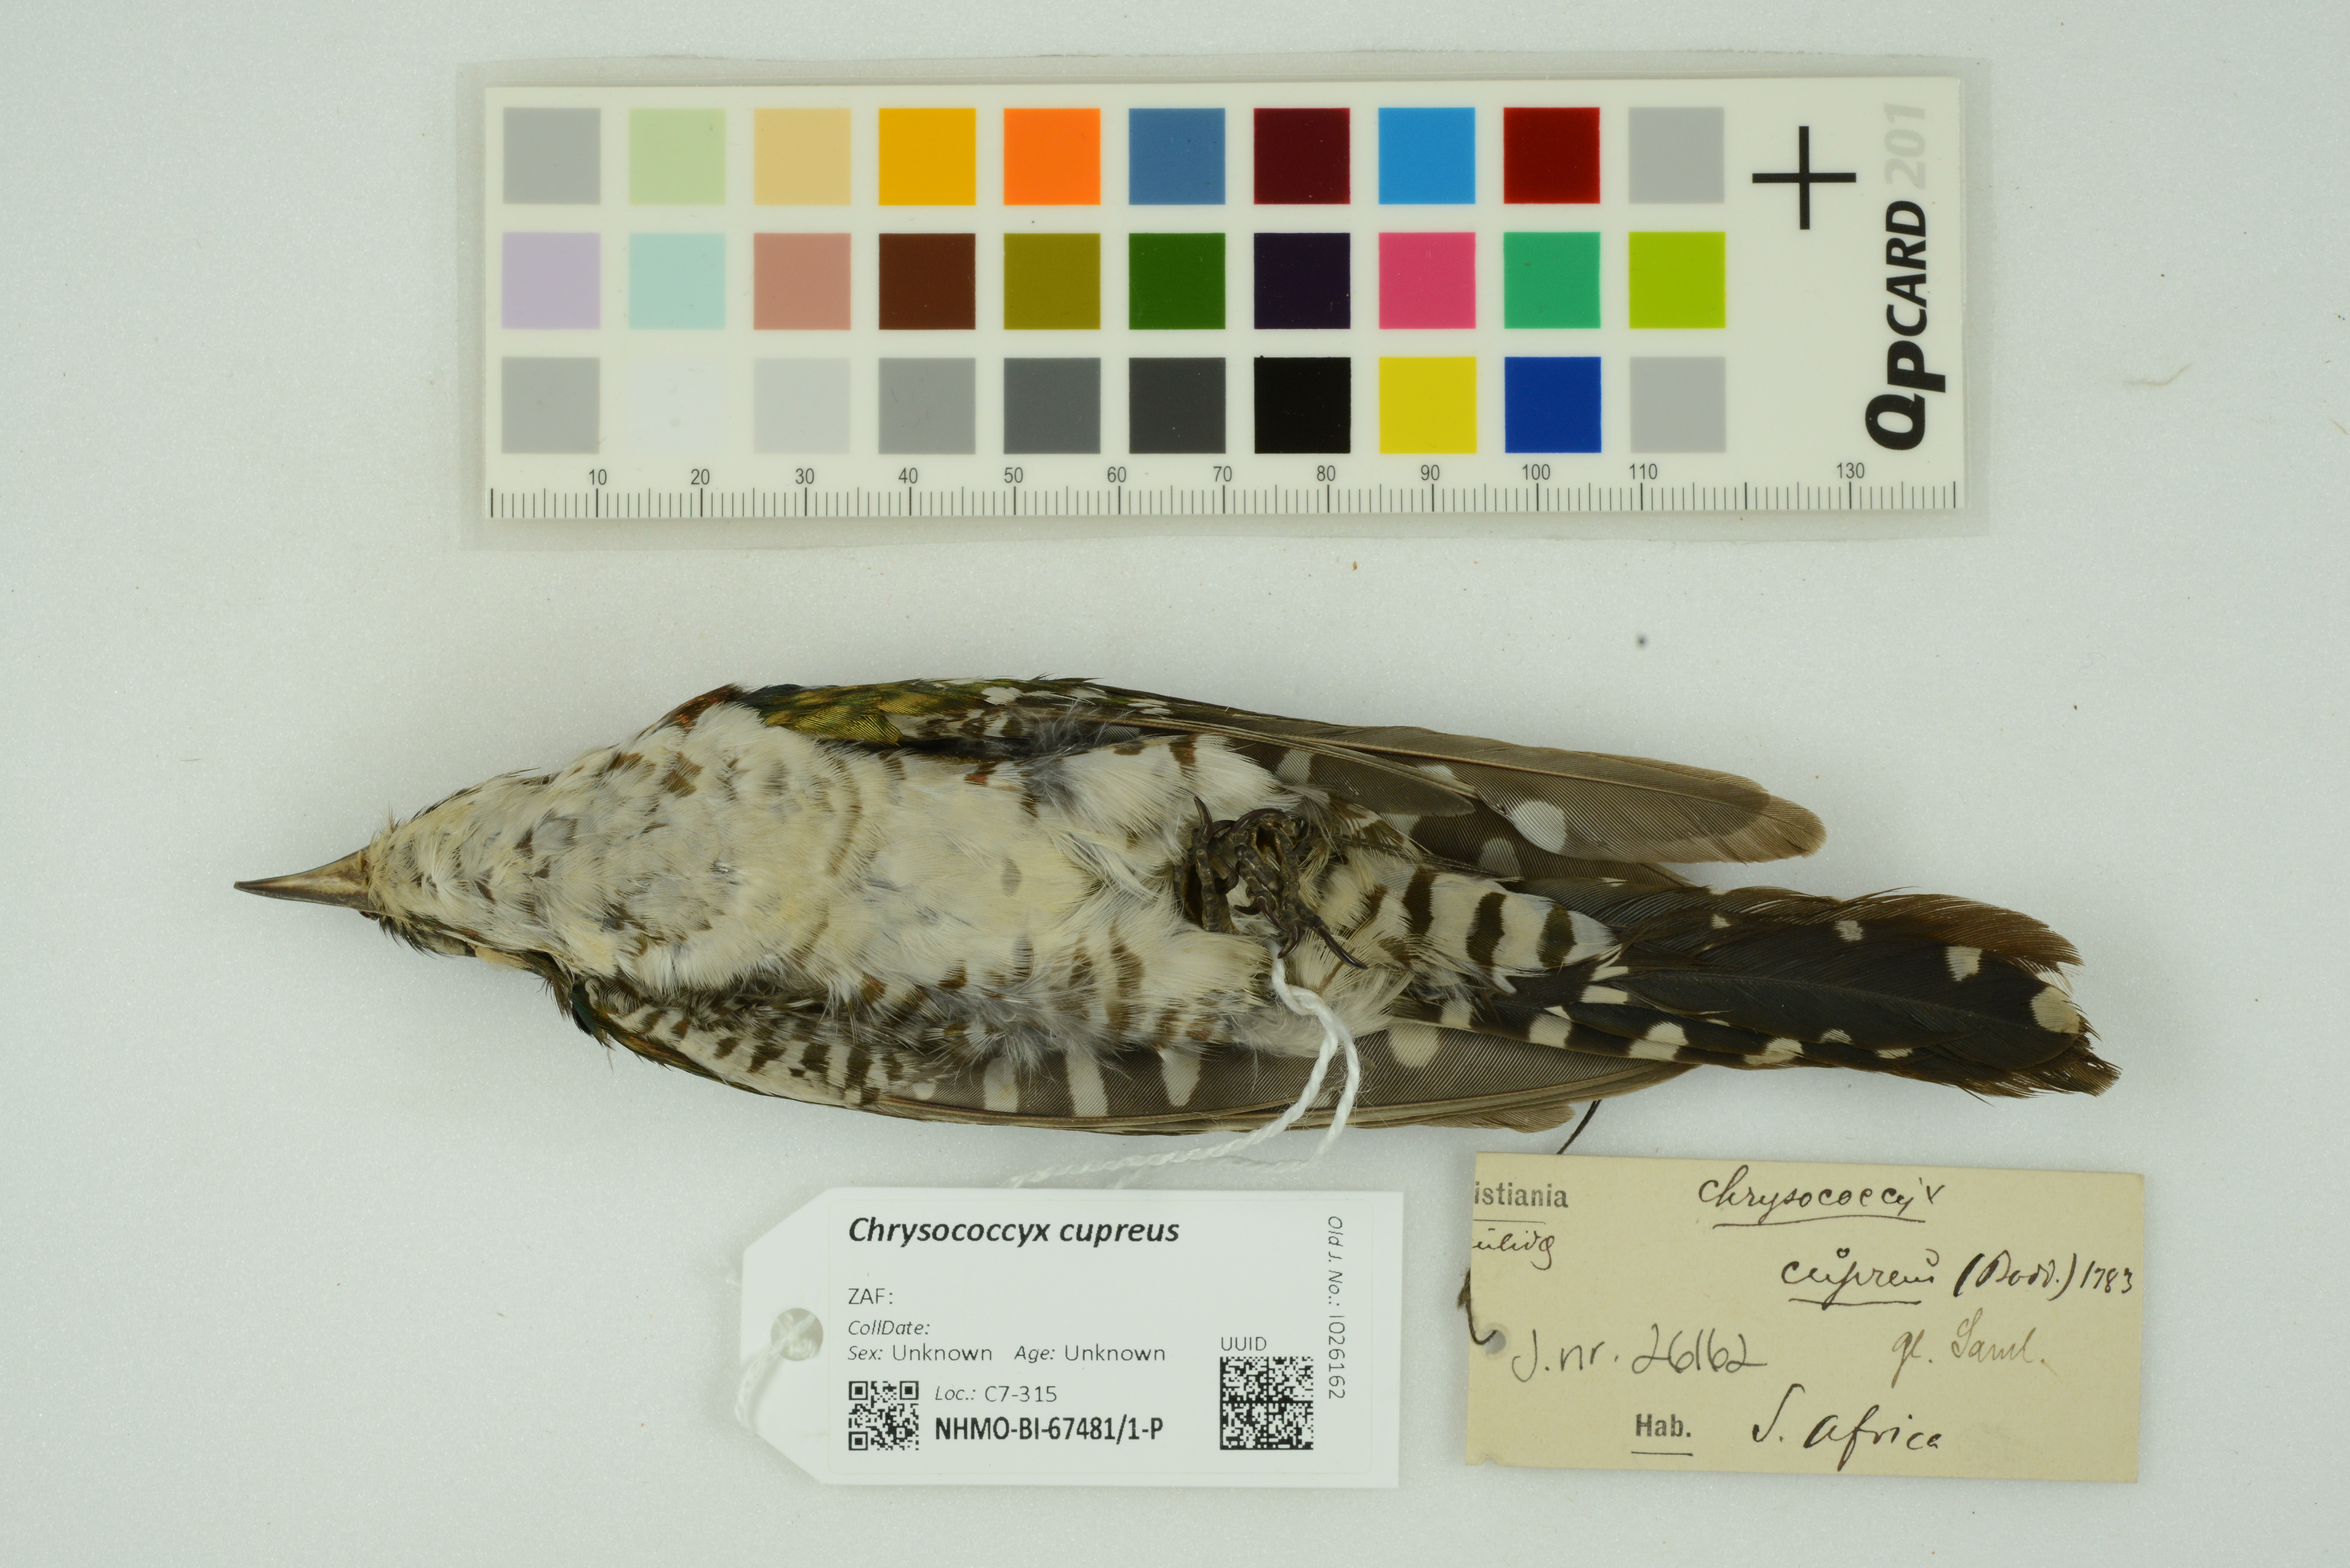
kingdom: Animalia
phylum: Chordata
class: Aves
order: Cuculiformes
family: Cuculidae
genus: Chrysococcyx
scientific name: Chrysococcyx cupreus
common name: African emerald cuckoo
